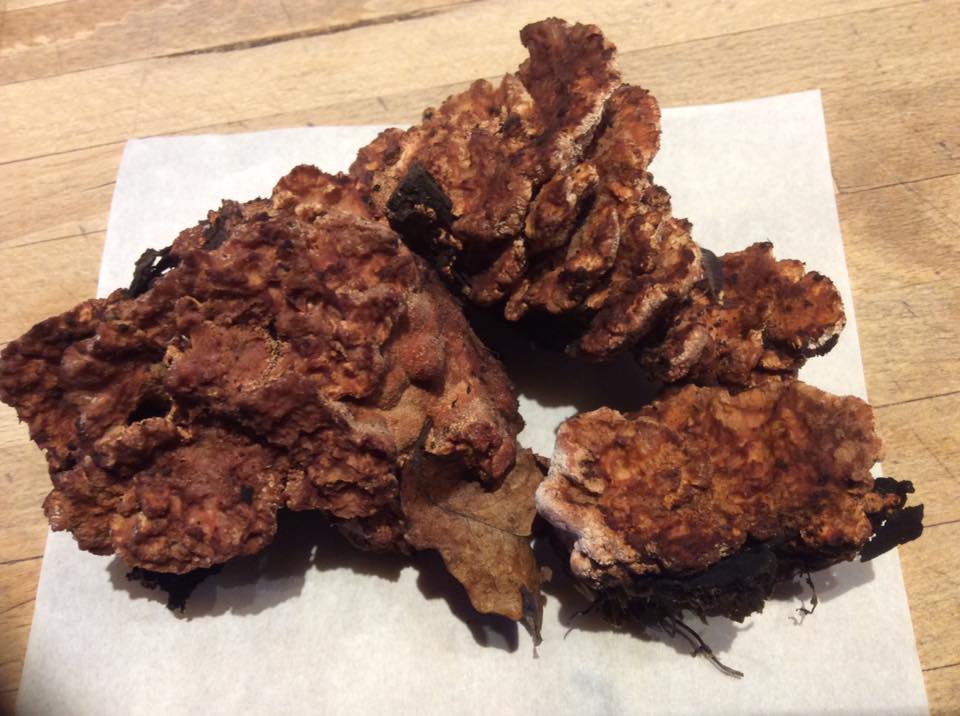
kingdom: Fungi
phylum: Basidiomycota
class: Agaricomycetes
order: Polyporales
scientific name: Polyporales
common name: poresvampordenen
